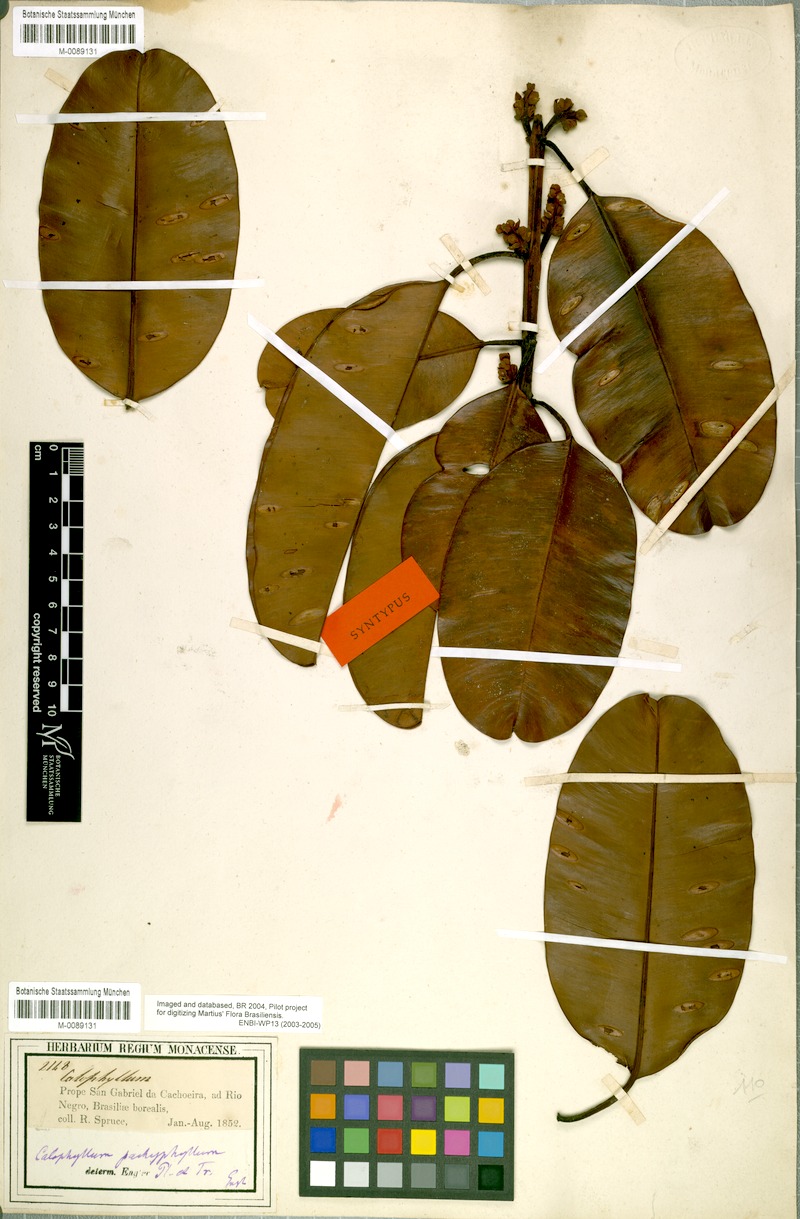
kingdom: Plantae
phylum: Tracheophyta
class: Magnoliopsida
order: Malpighiales
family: Calophyllaceae
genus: Calophyllum
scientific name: Calophyllum pachyphyllum
